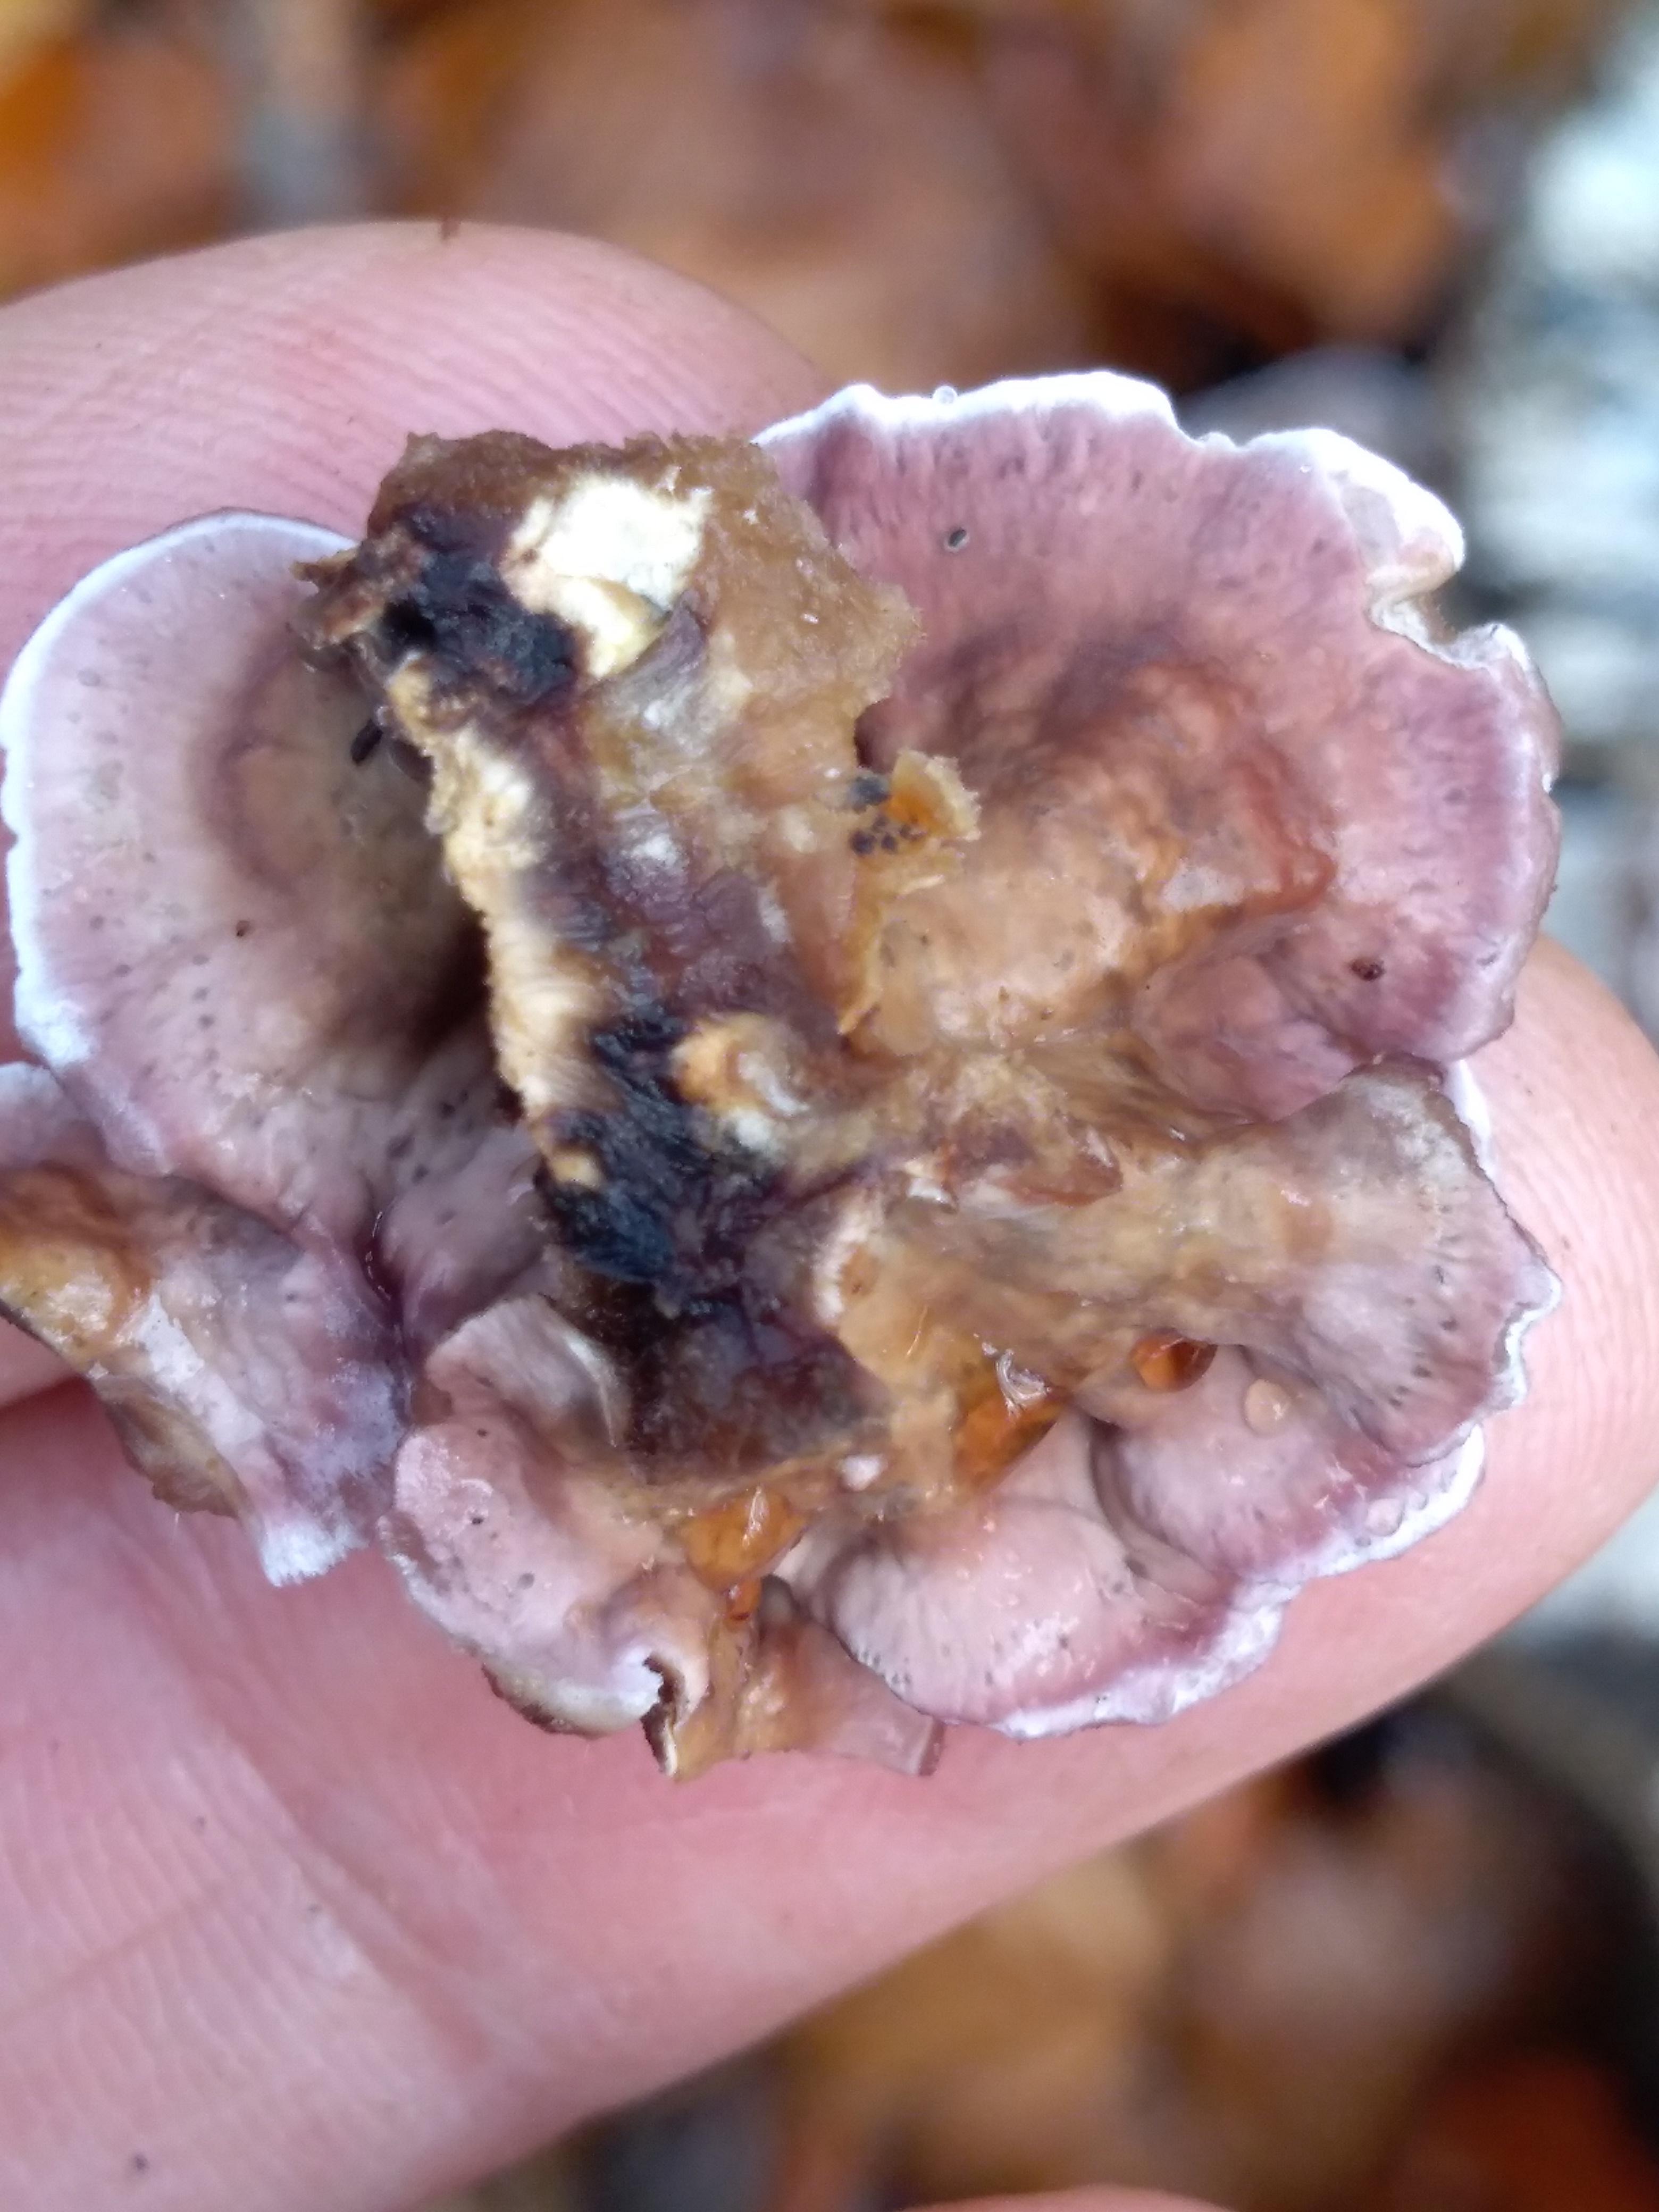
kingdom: Fungi
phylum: Basidiomycota
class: Agaricomycetes
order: Agaricales
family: Cyphellaceae
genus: Chondrostereum
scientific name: Chondrostereum purpureum
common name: purpurlædersvamp
